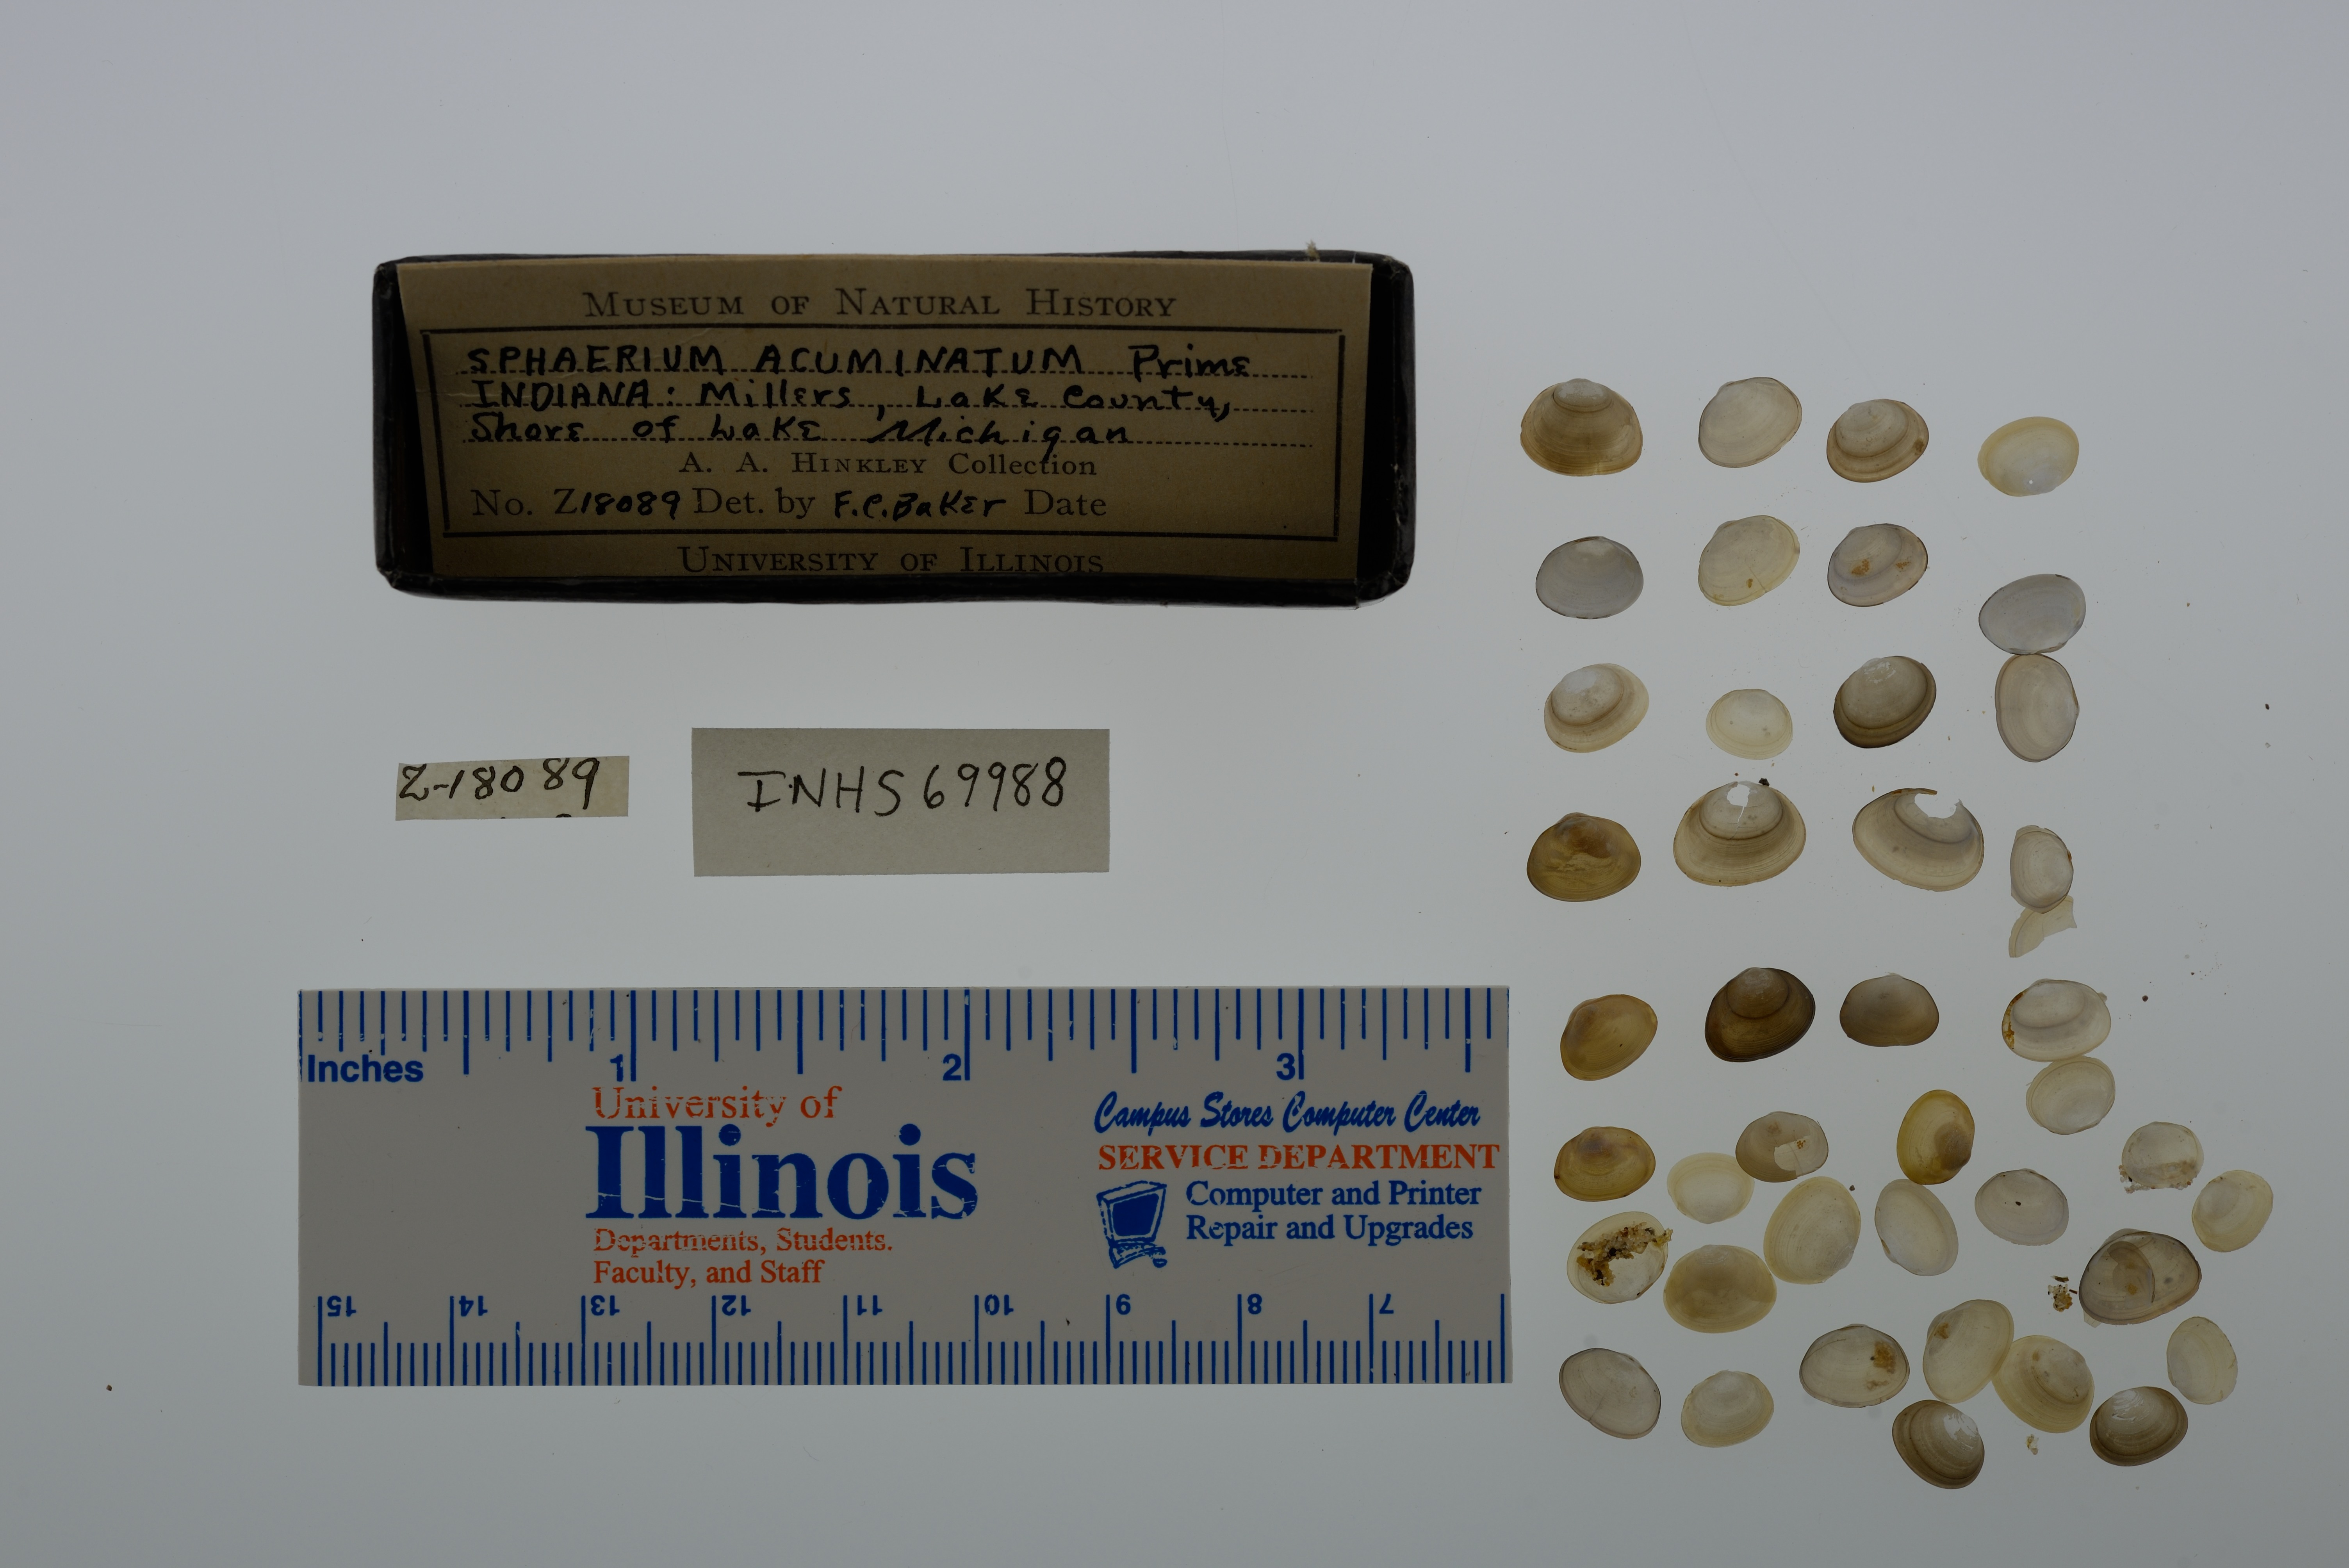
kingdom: Animalia
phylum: Mollusca
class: Bivalvia
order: Sphaeriida
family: Sphaeriidae
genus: Sphaerium
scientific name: Sphaerium striatinum
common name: Striated fingernailclam
